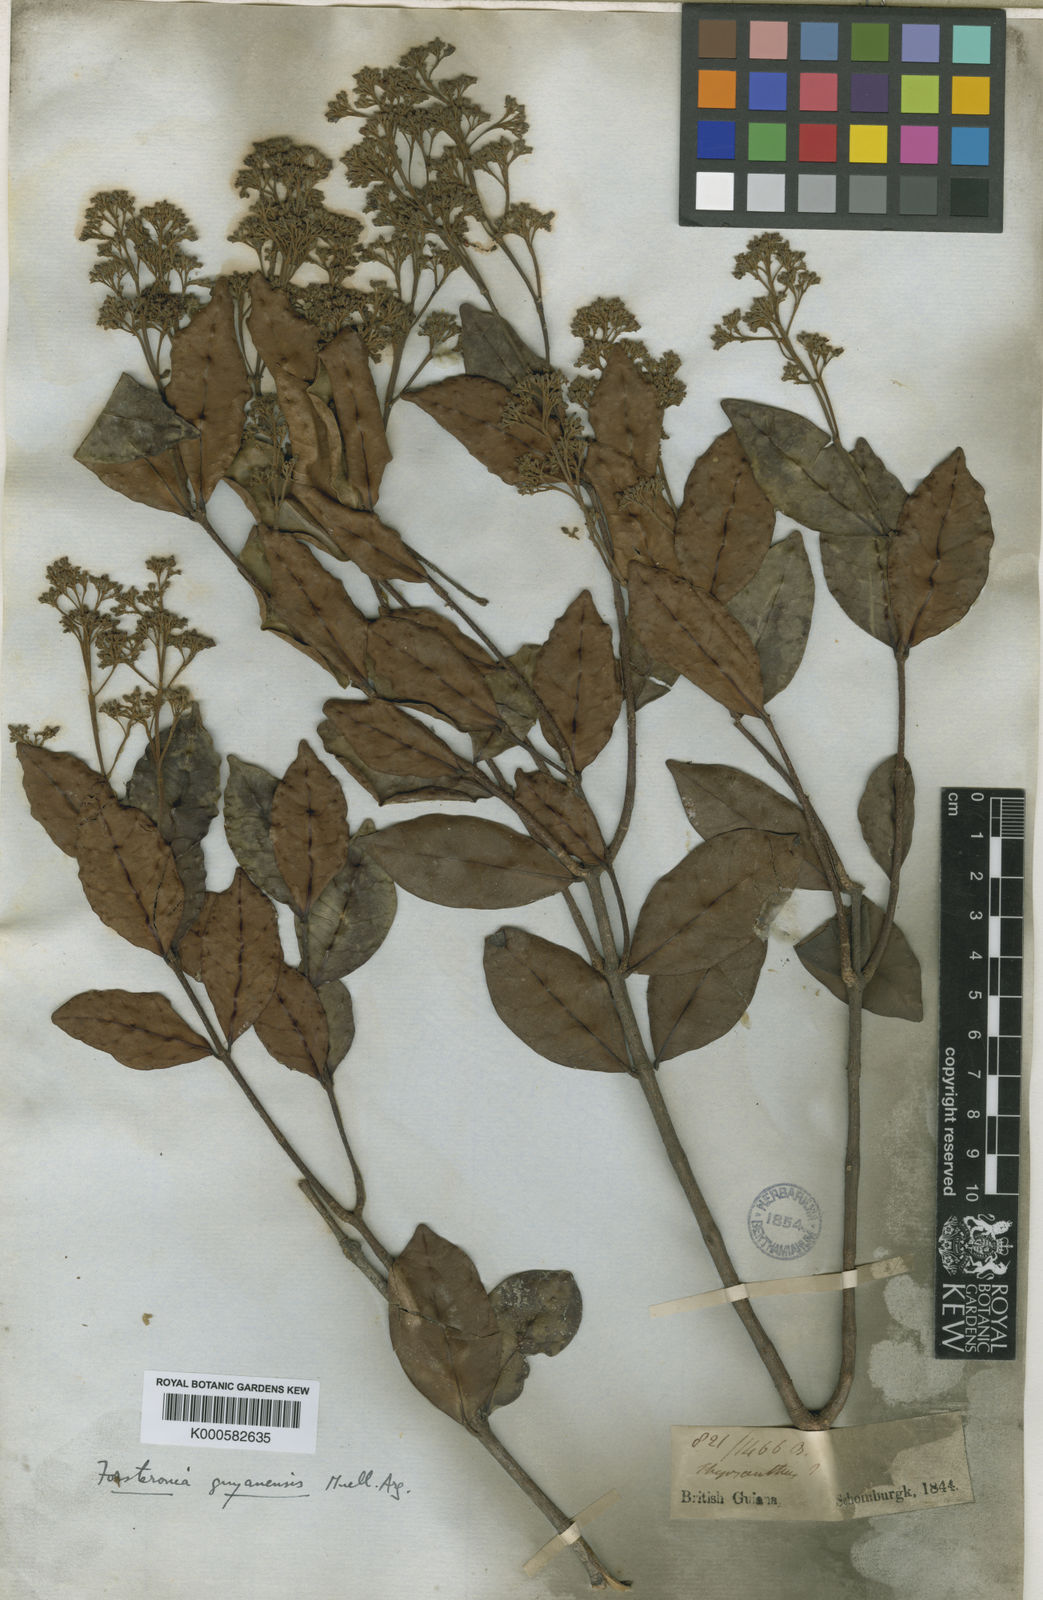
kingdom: Plantae
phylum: Tracheophyta
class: Magnoliopsida
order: Gentianales
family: Apocynaceae
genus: Forsteronia
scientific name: Forsteronia
